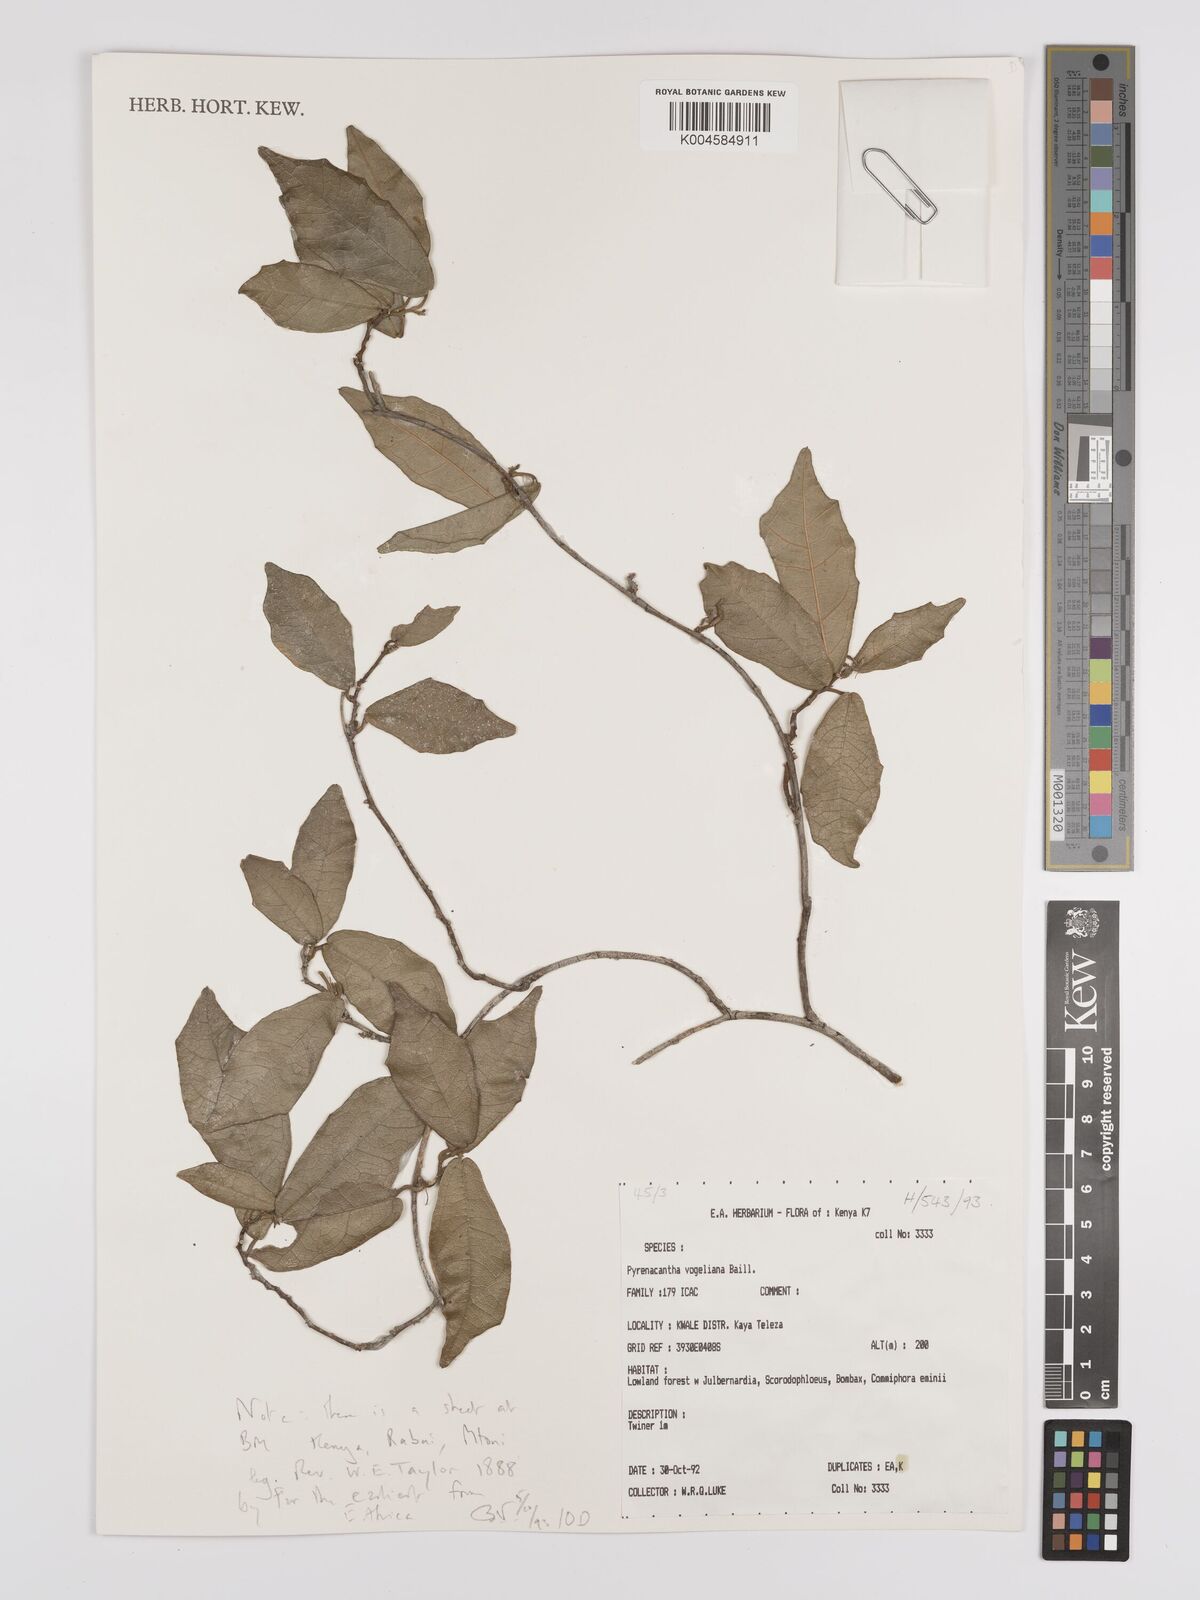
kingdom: Plantae
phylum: Tracheophyta
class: Magnoliopsida
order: Icacinales
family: Icacinaceae
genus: Pyrenacantha
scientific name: Pyrenacantha vogeliana
